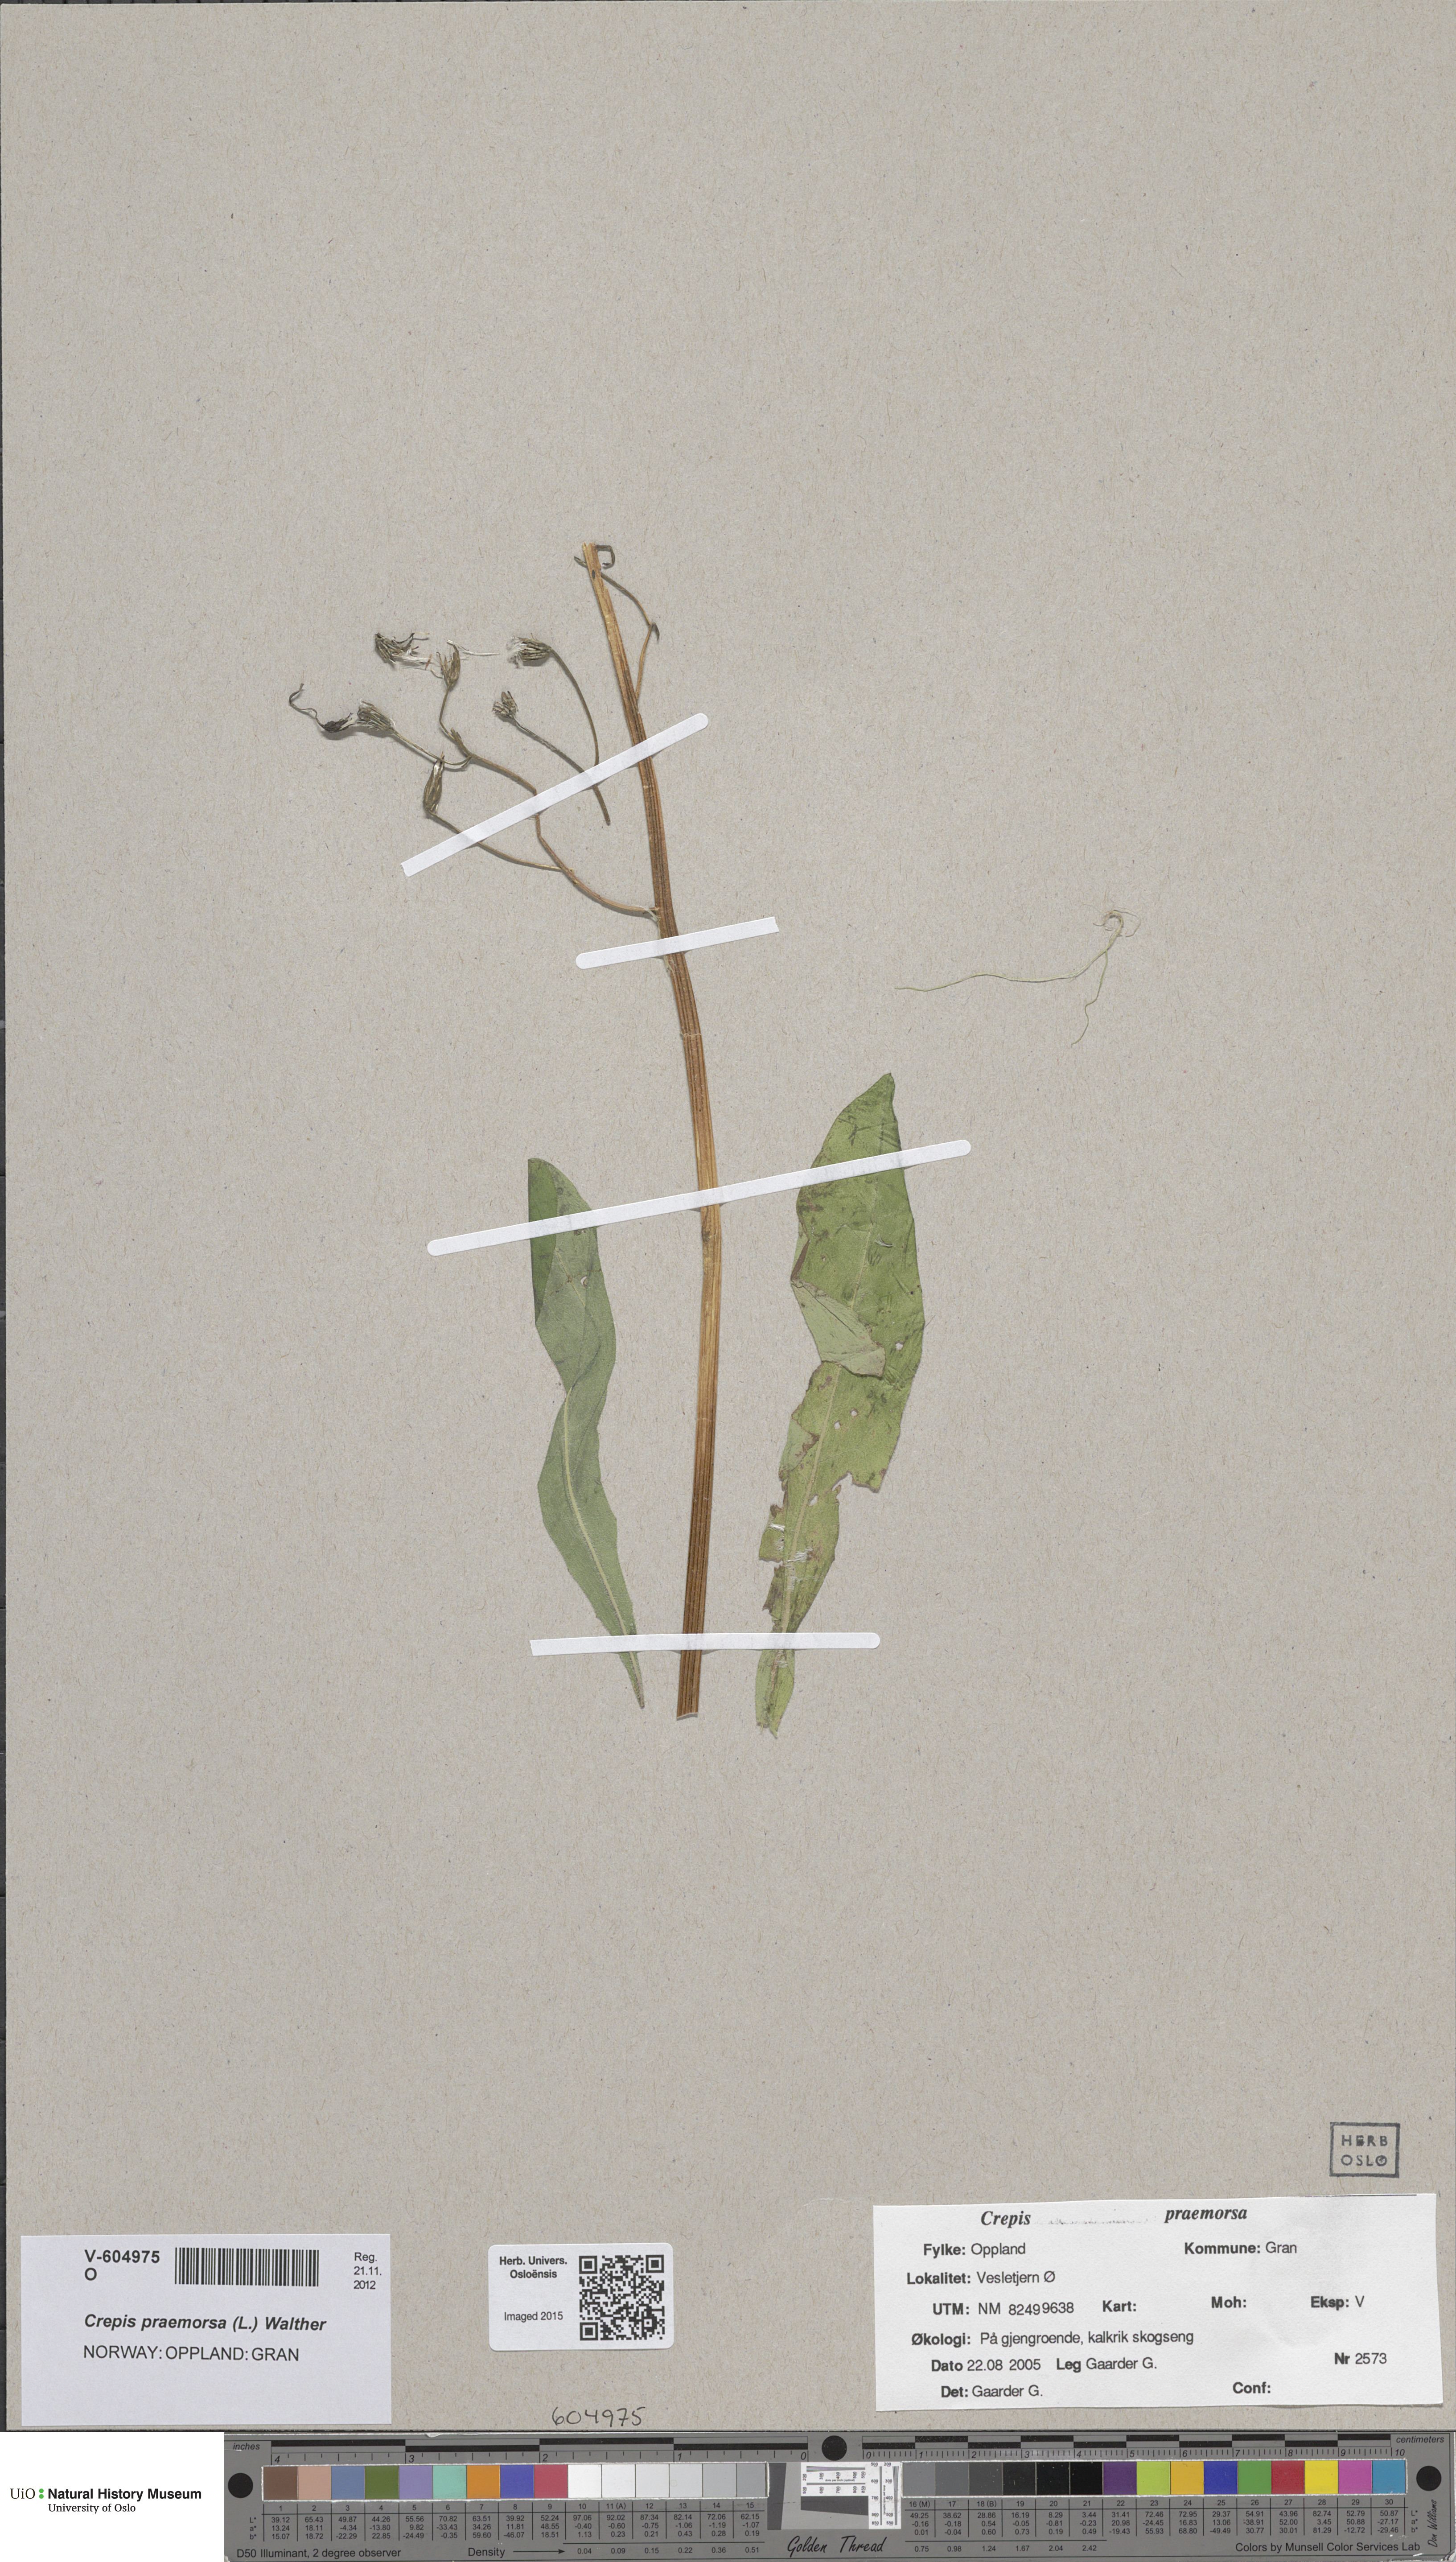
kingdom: Plantae
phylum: Tracheophyta
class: Magnoliopsida
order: Asterales
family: Asteraceae
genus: Crepis
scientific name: Crepis praemorsa
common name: Leafless hawk's-beard
